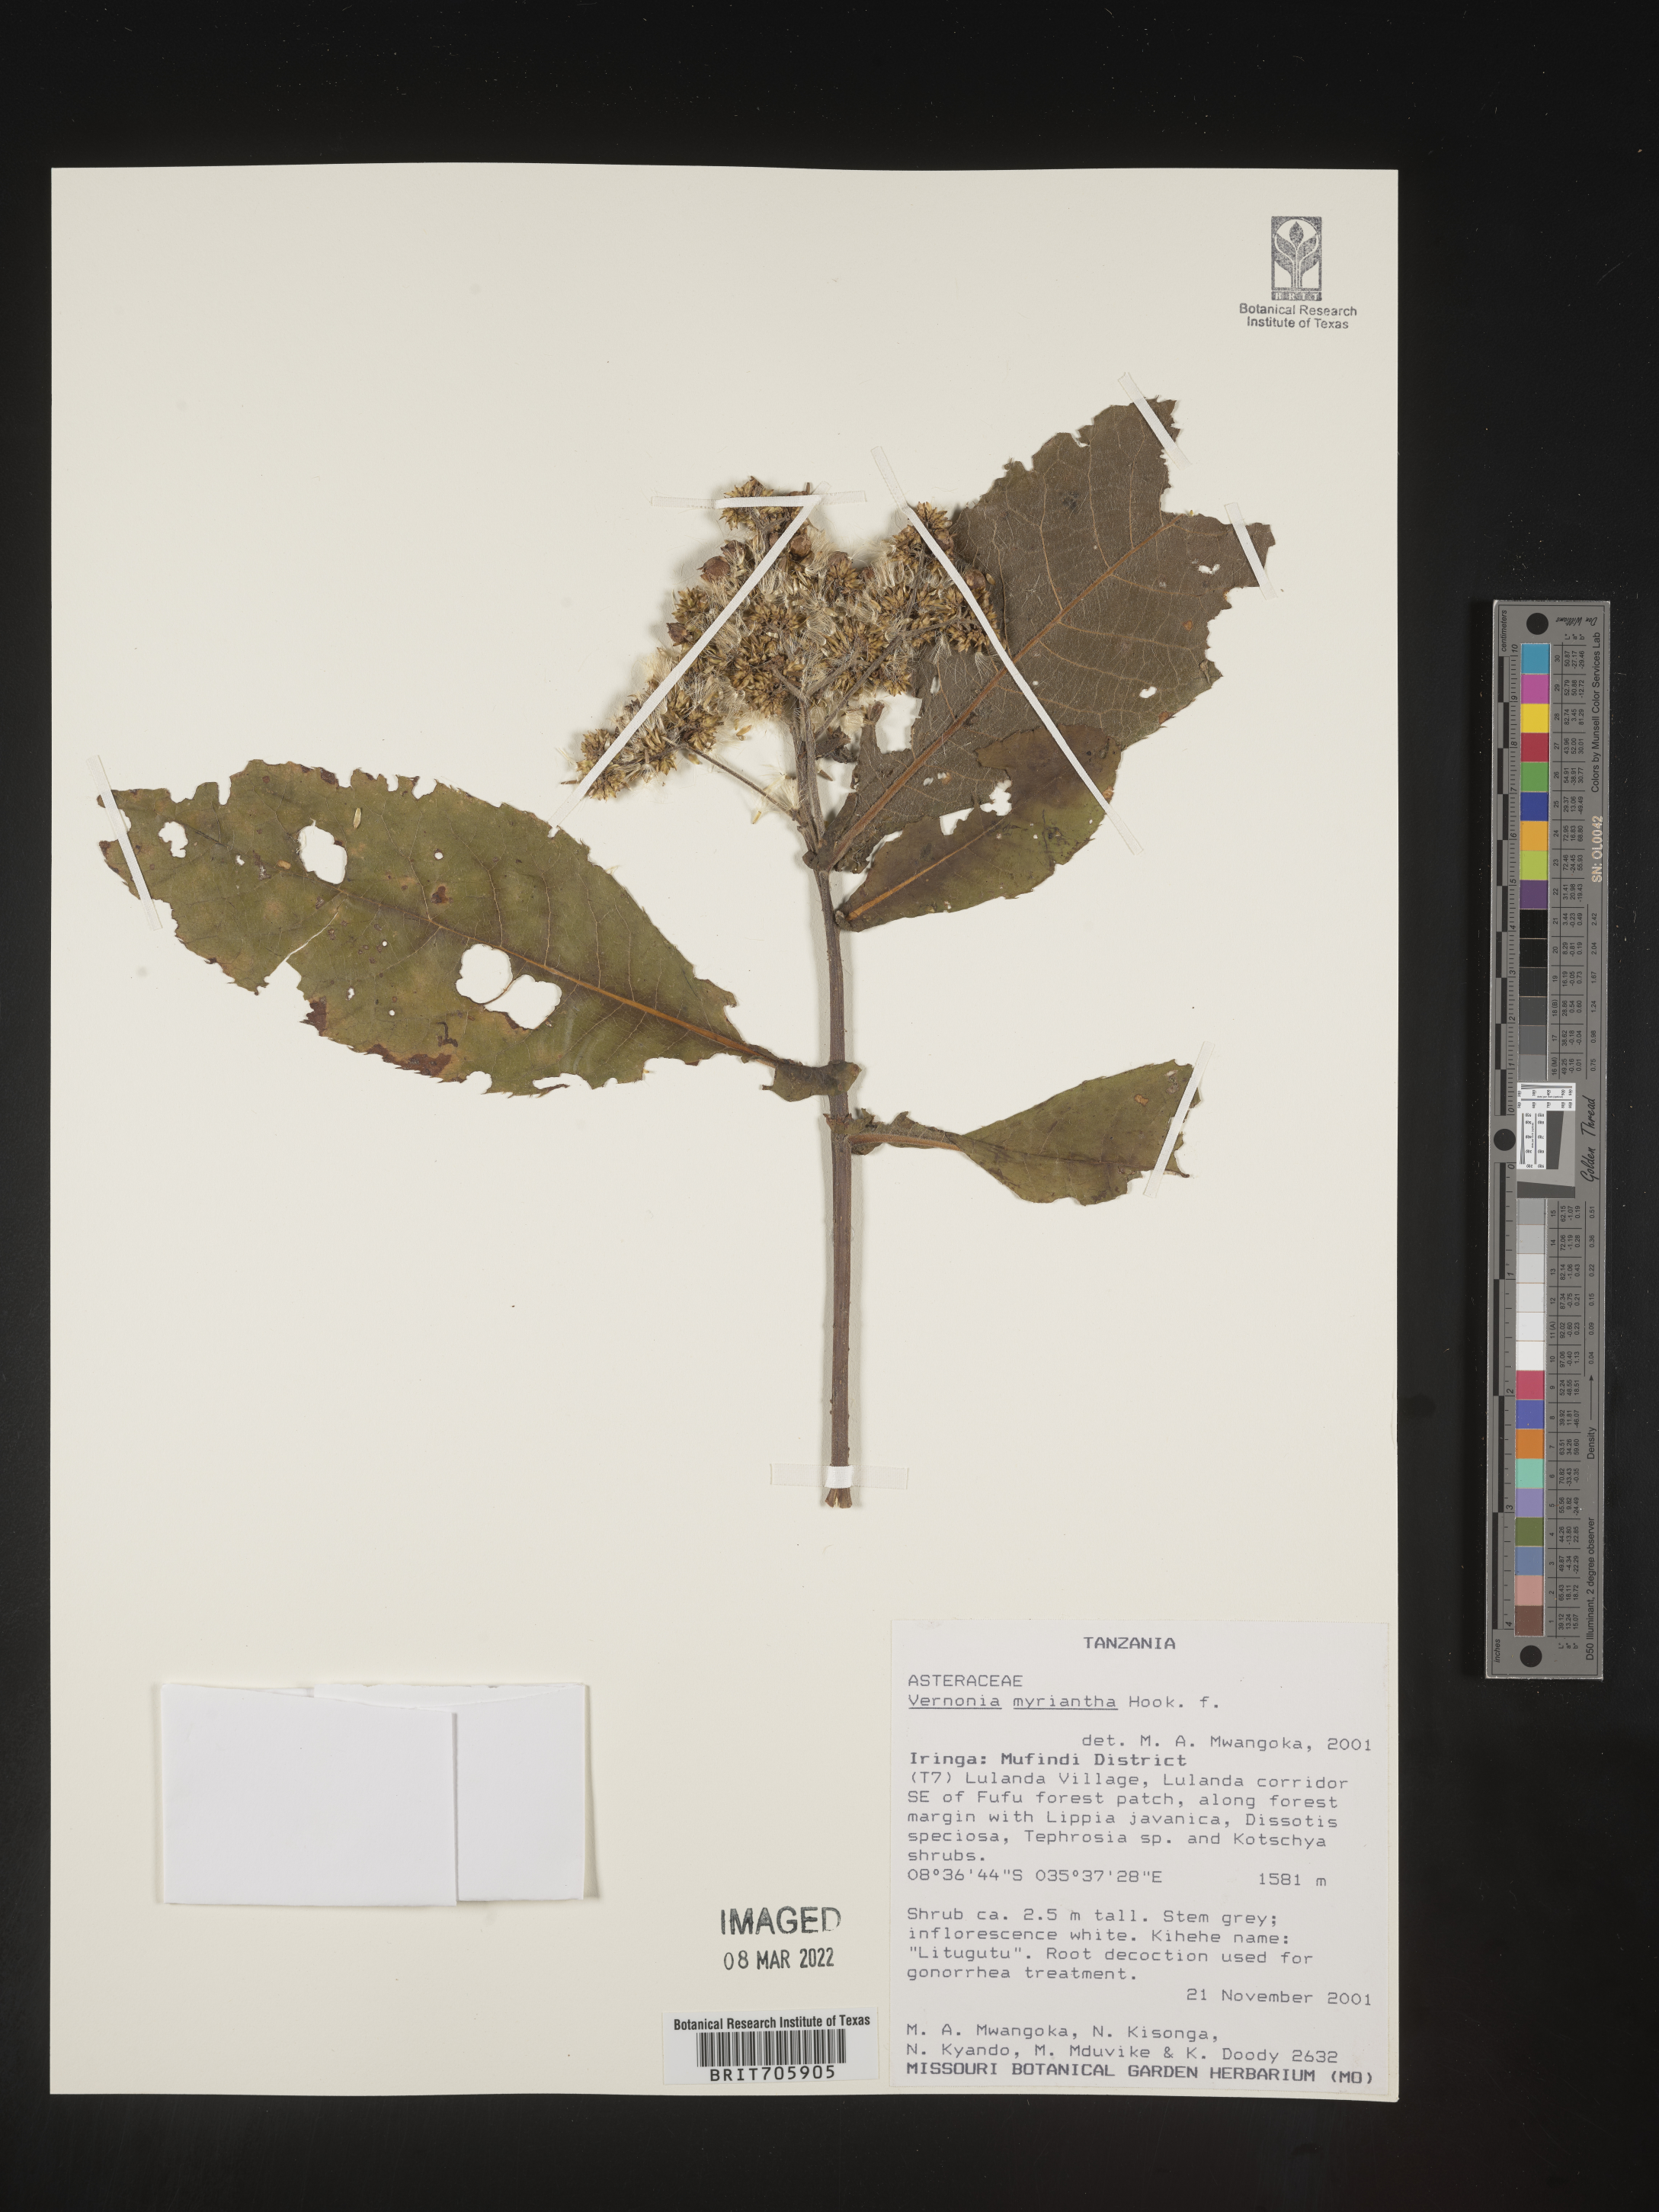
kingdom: Plantae
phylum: Tracheophyta
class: Magnoliopsida
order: Asterales
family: Asteraceae
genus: Vernonia
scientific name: Vernonia
